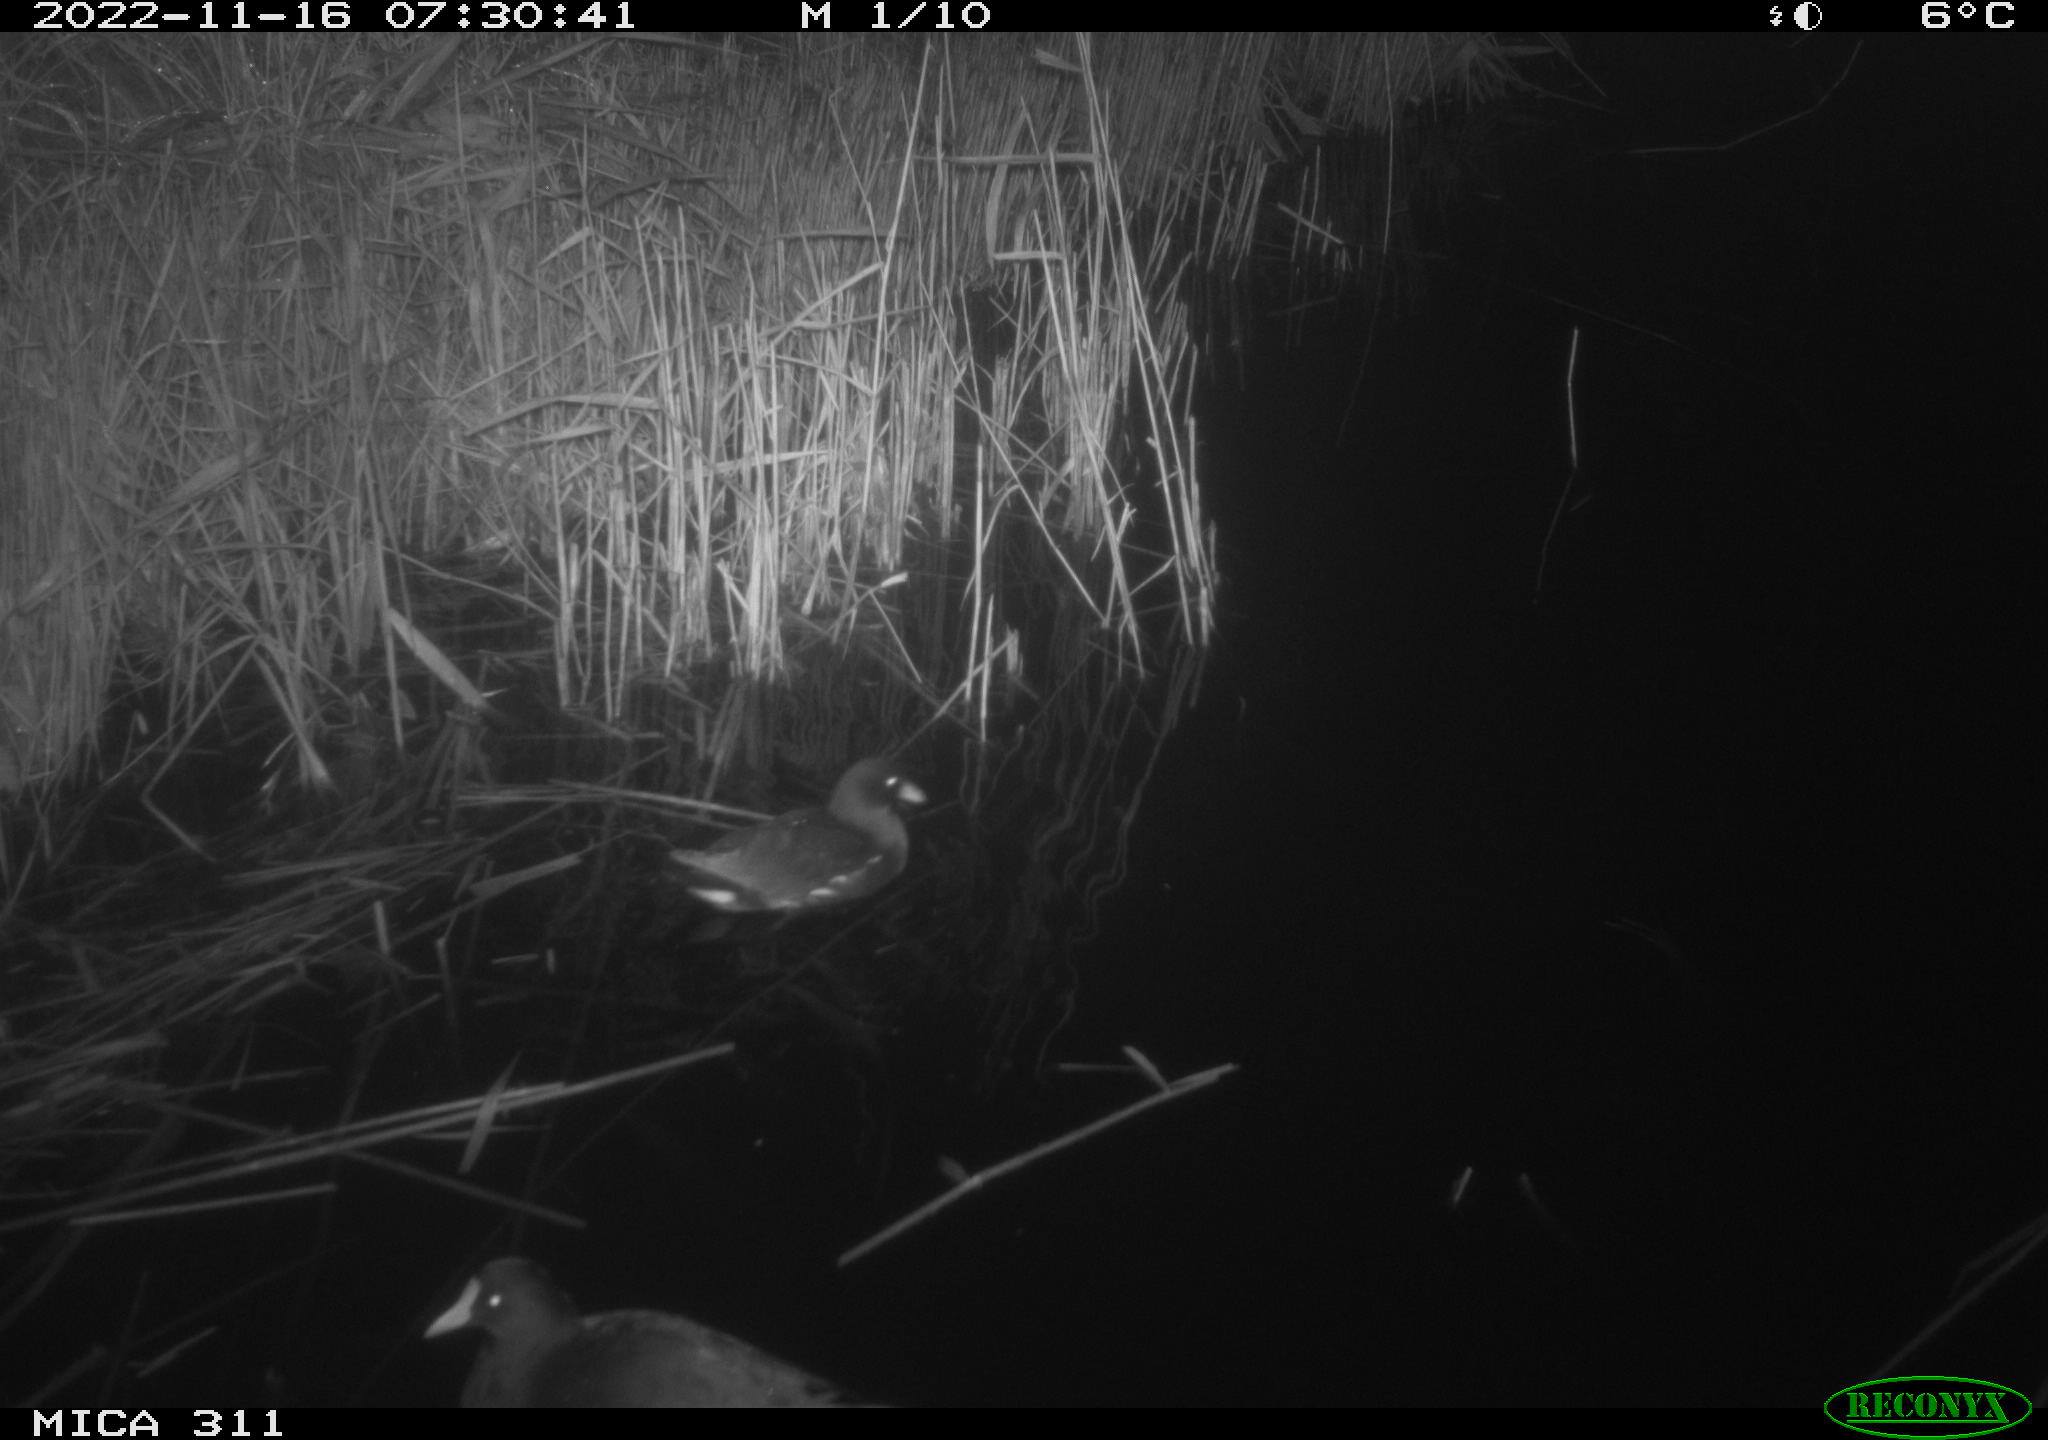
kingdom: Animalia
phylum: Chordata
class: Mammalia
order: Rodentia
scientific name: Rodentia
